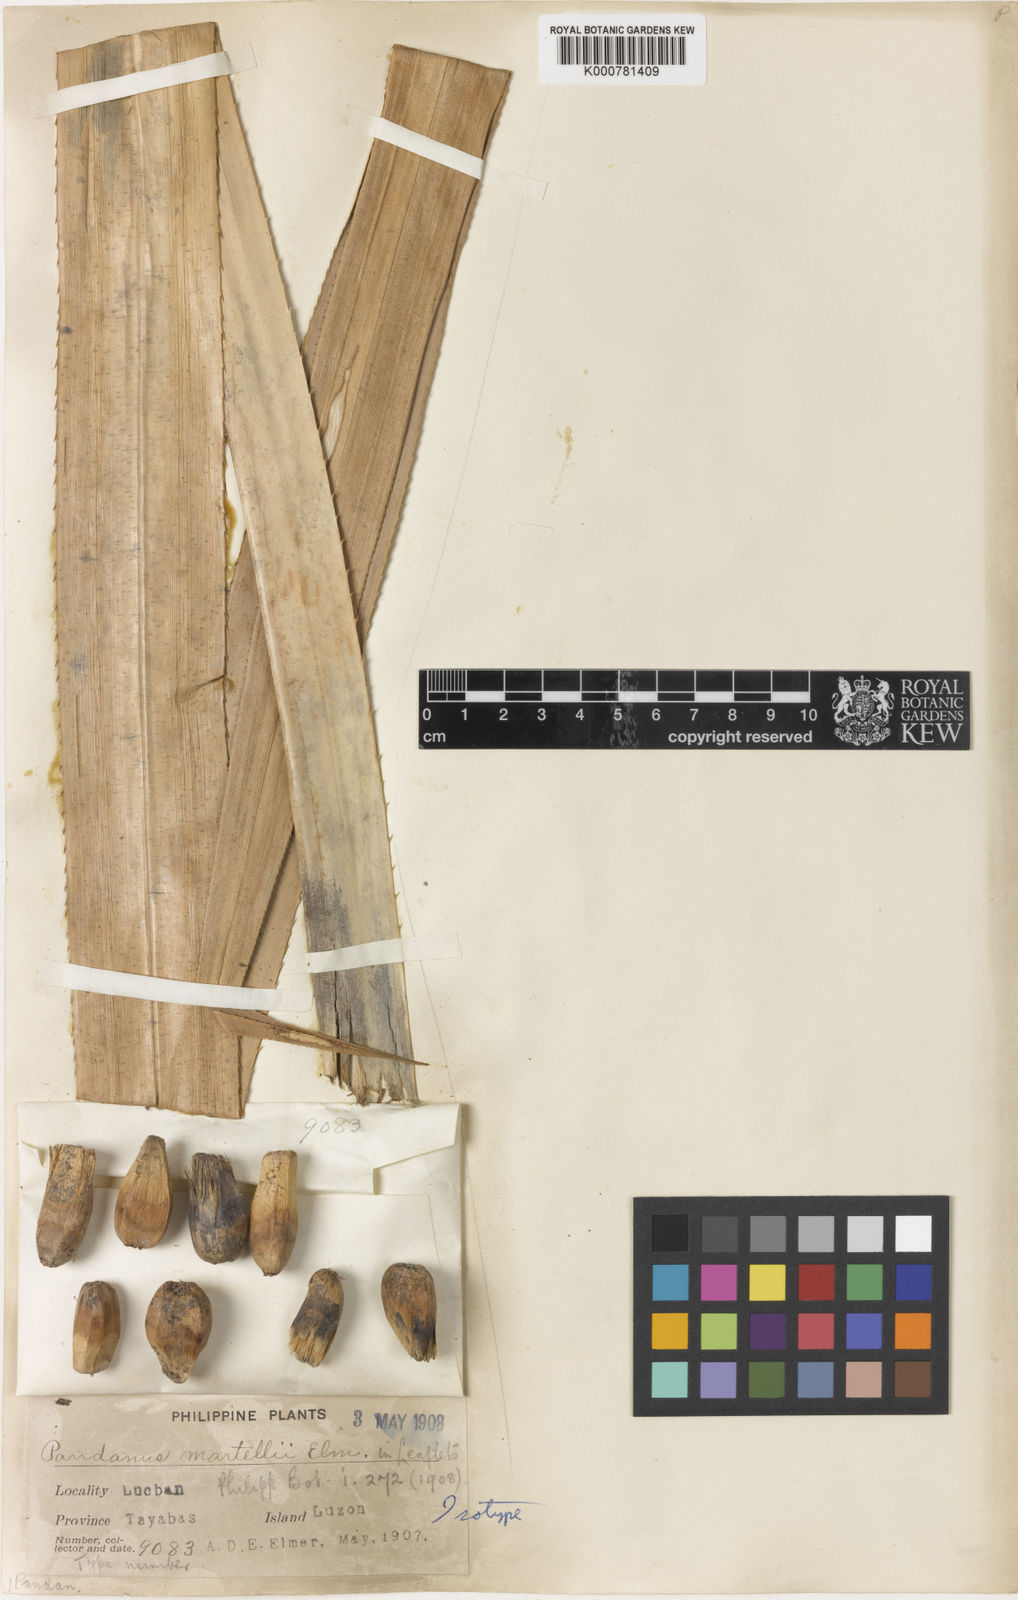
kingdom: Plantae
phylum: Tracheophyta
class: Liliopsida
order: Pandanales
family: Pandanaceae
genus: Pandanus
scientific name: Pandanus martellii
